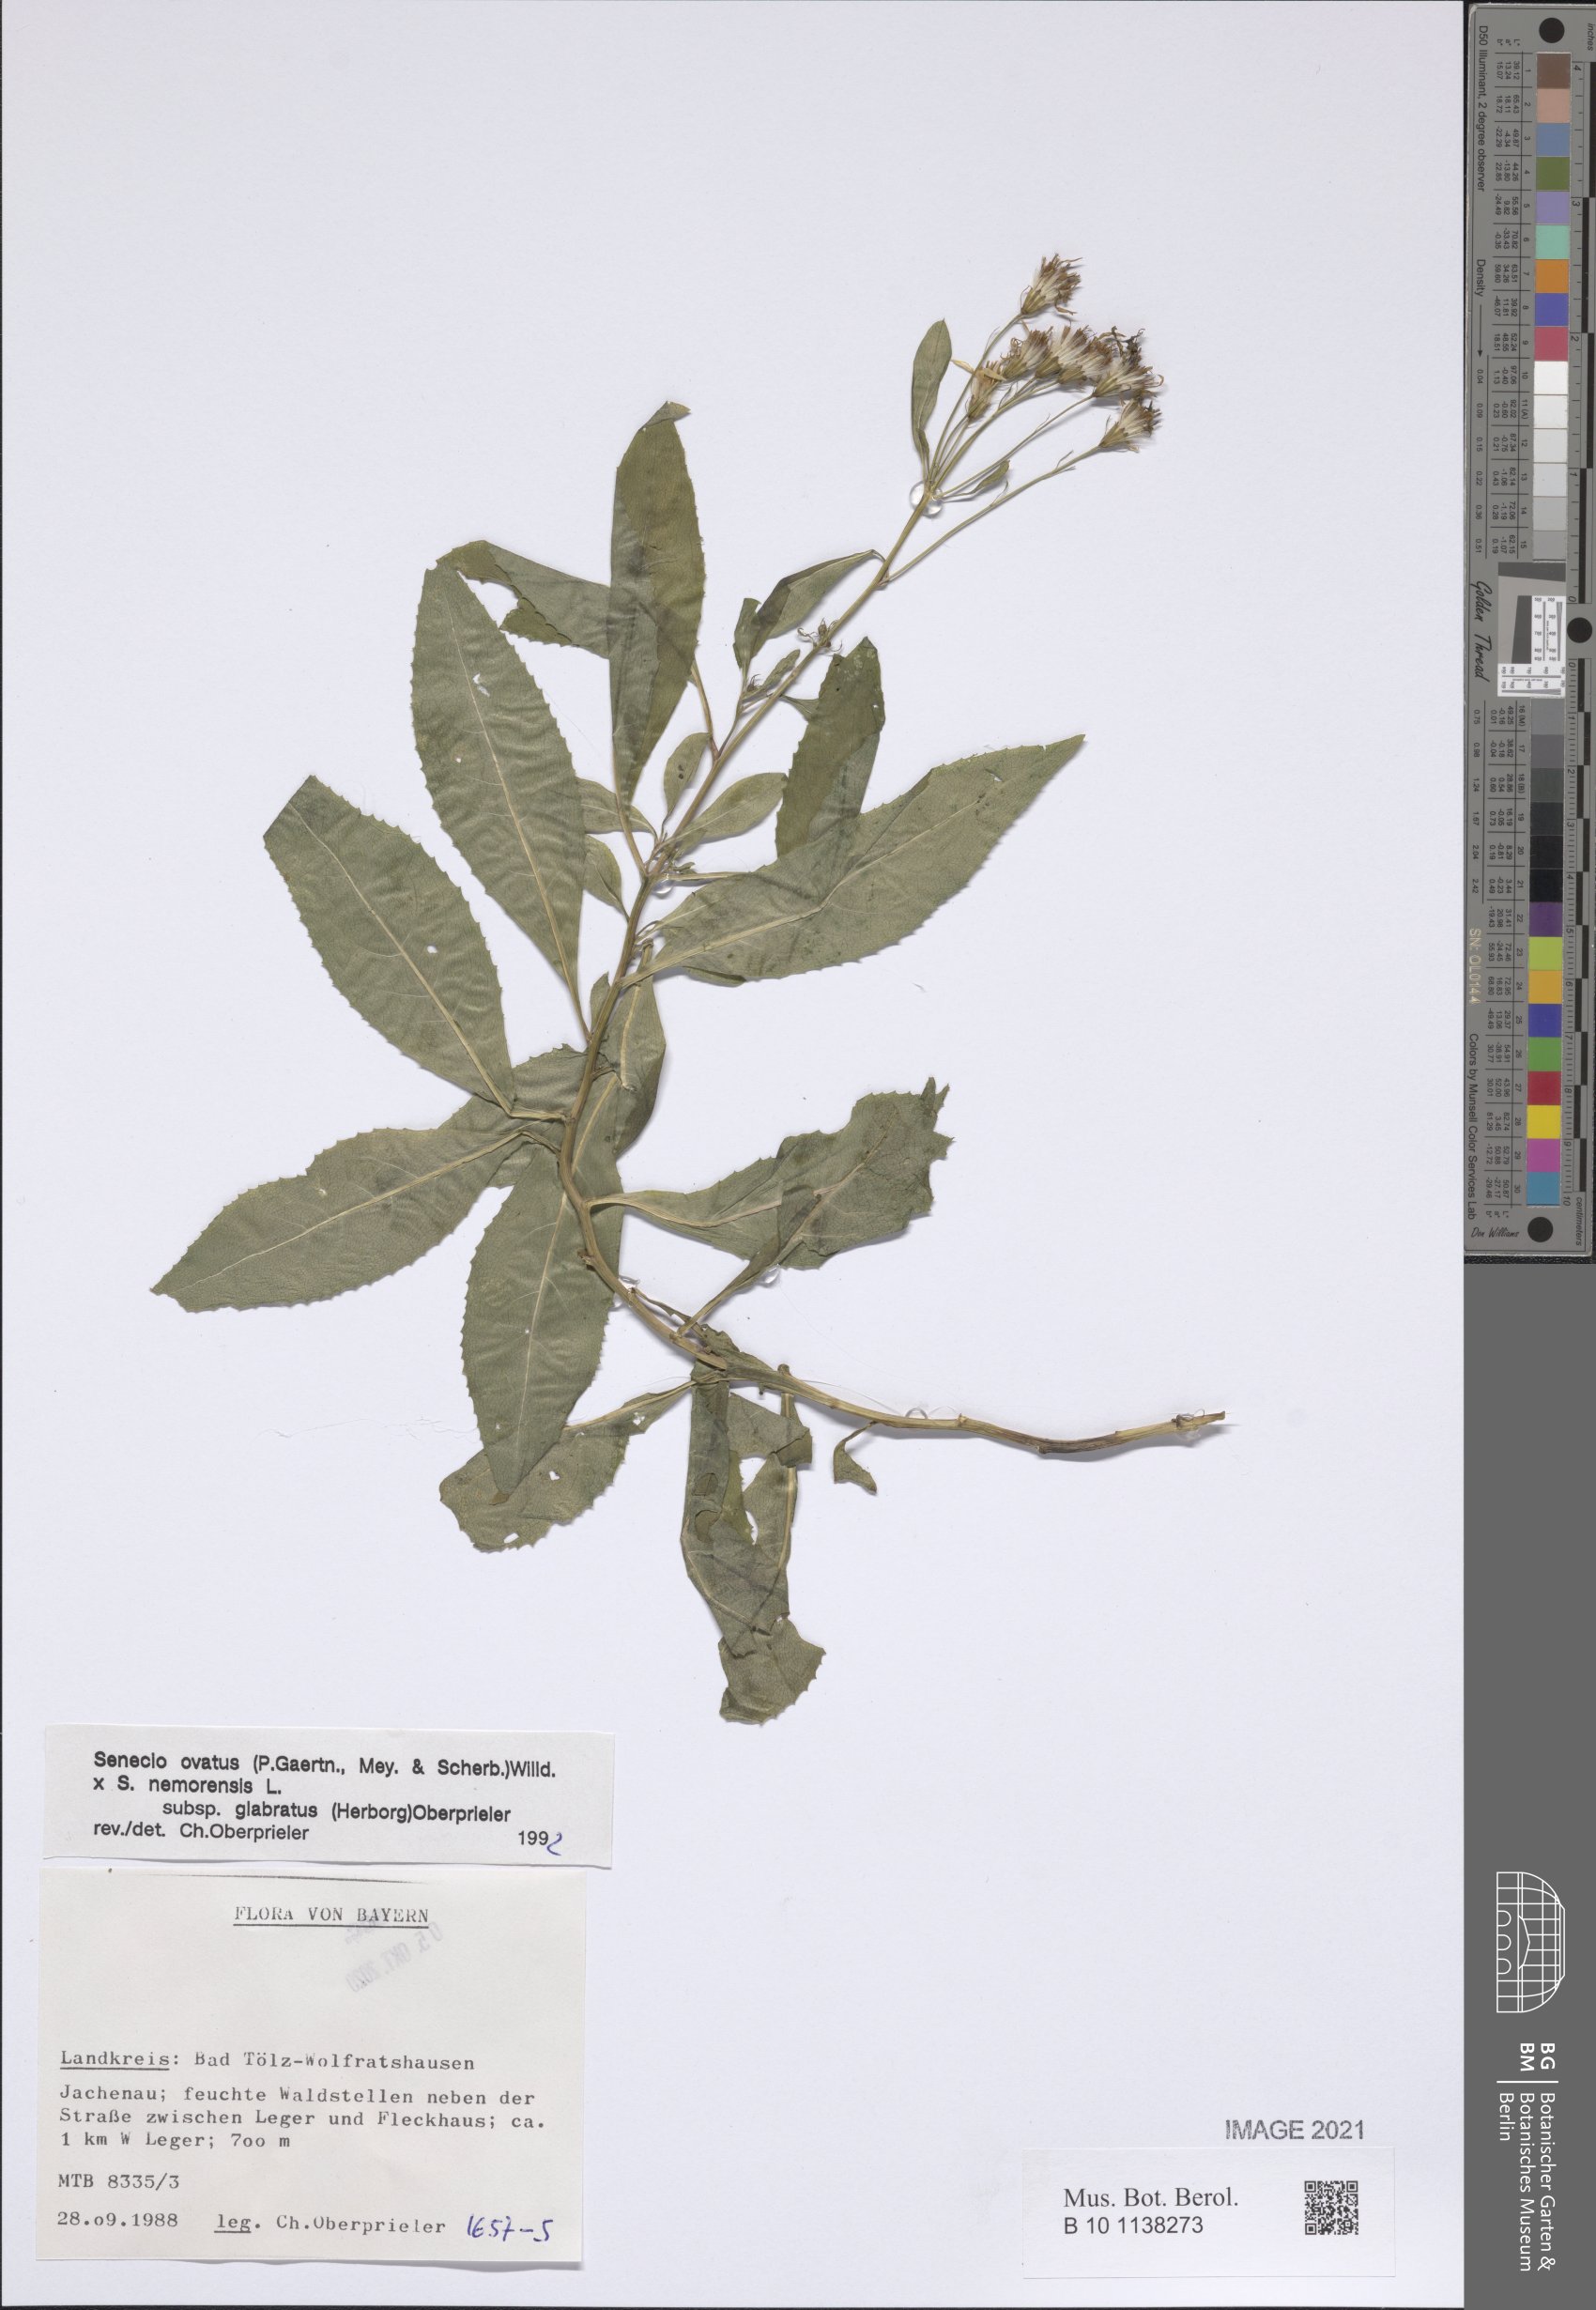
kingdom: Plantae
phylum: Tracheophyta
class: Magnoliopsida
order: Asterales
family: Asteraceae
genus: Senecio
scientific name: Senecio ovatus
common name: Wood ragwort
